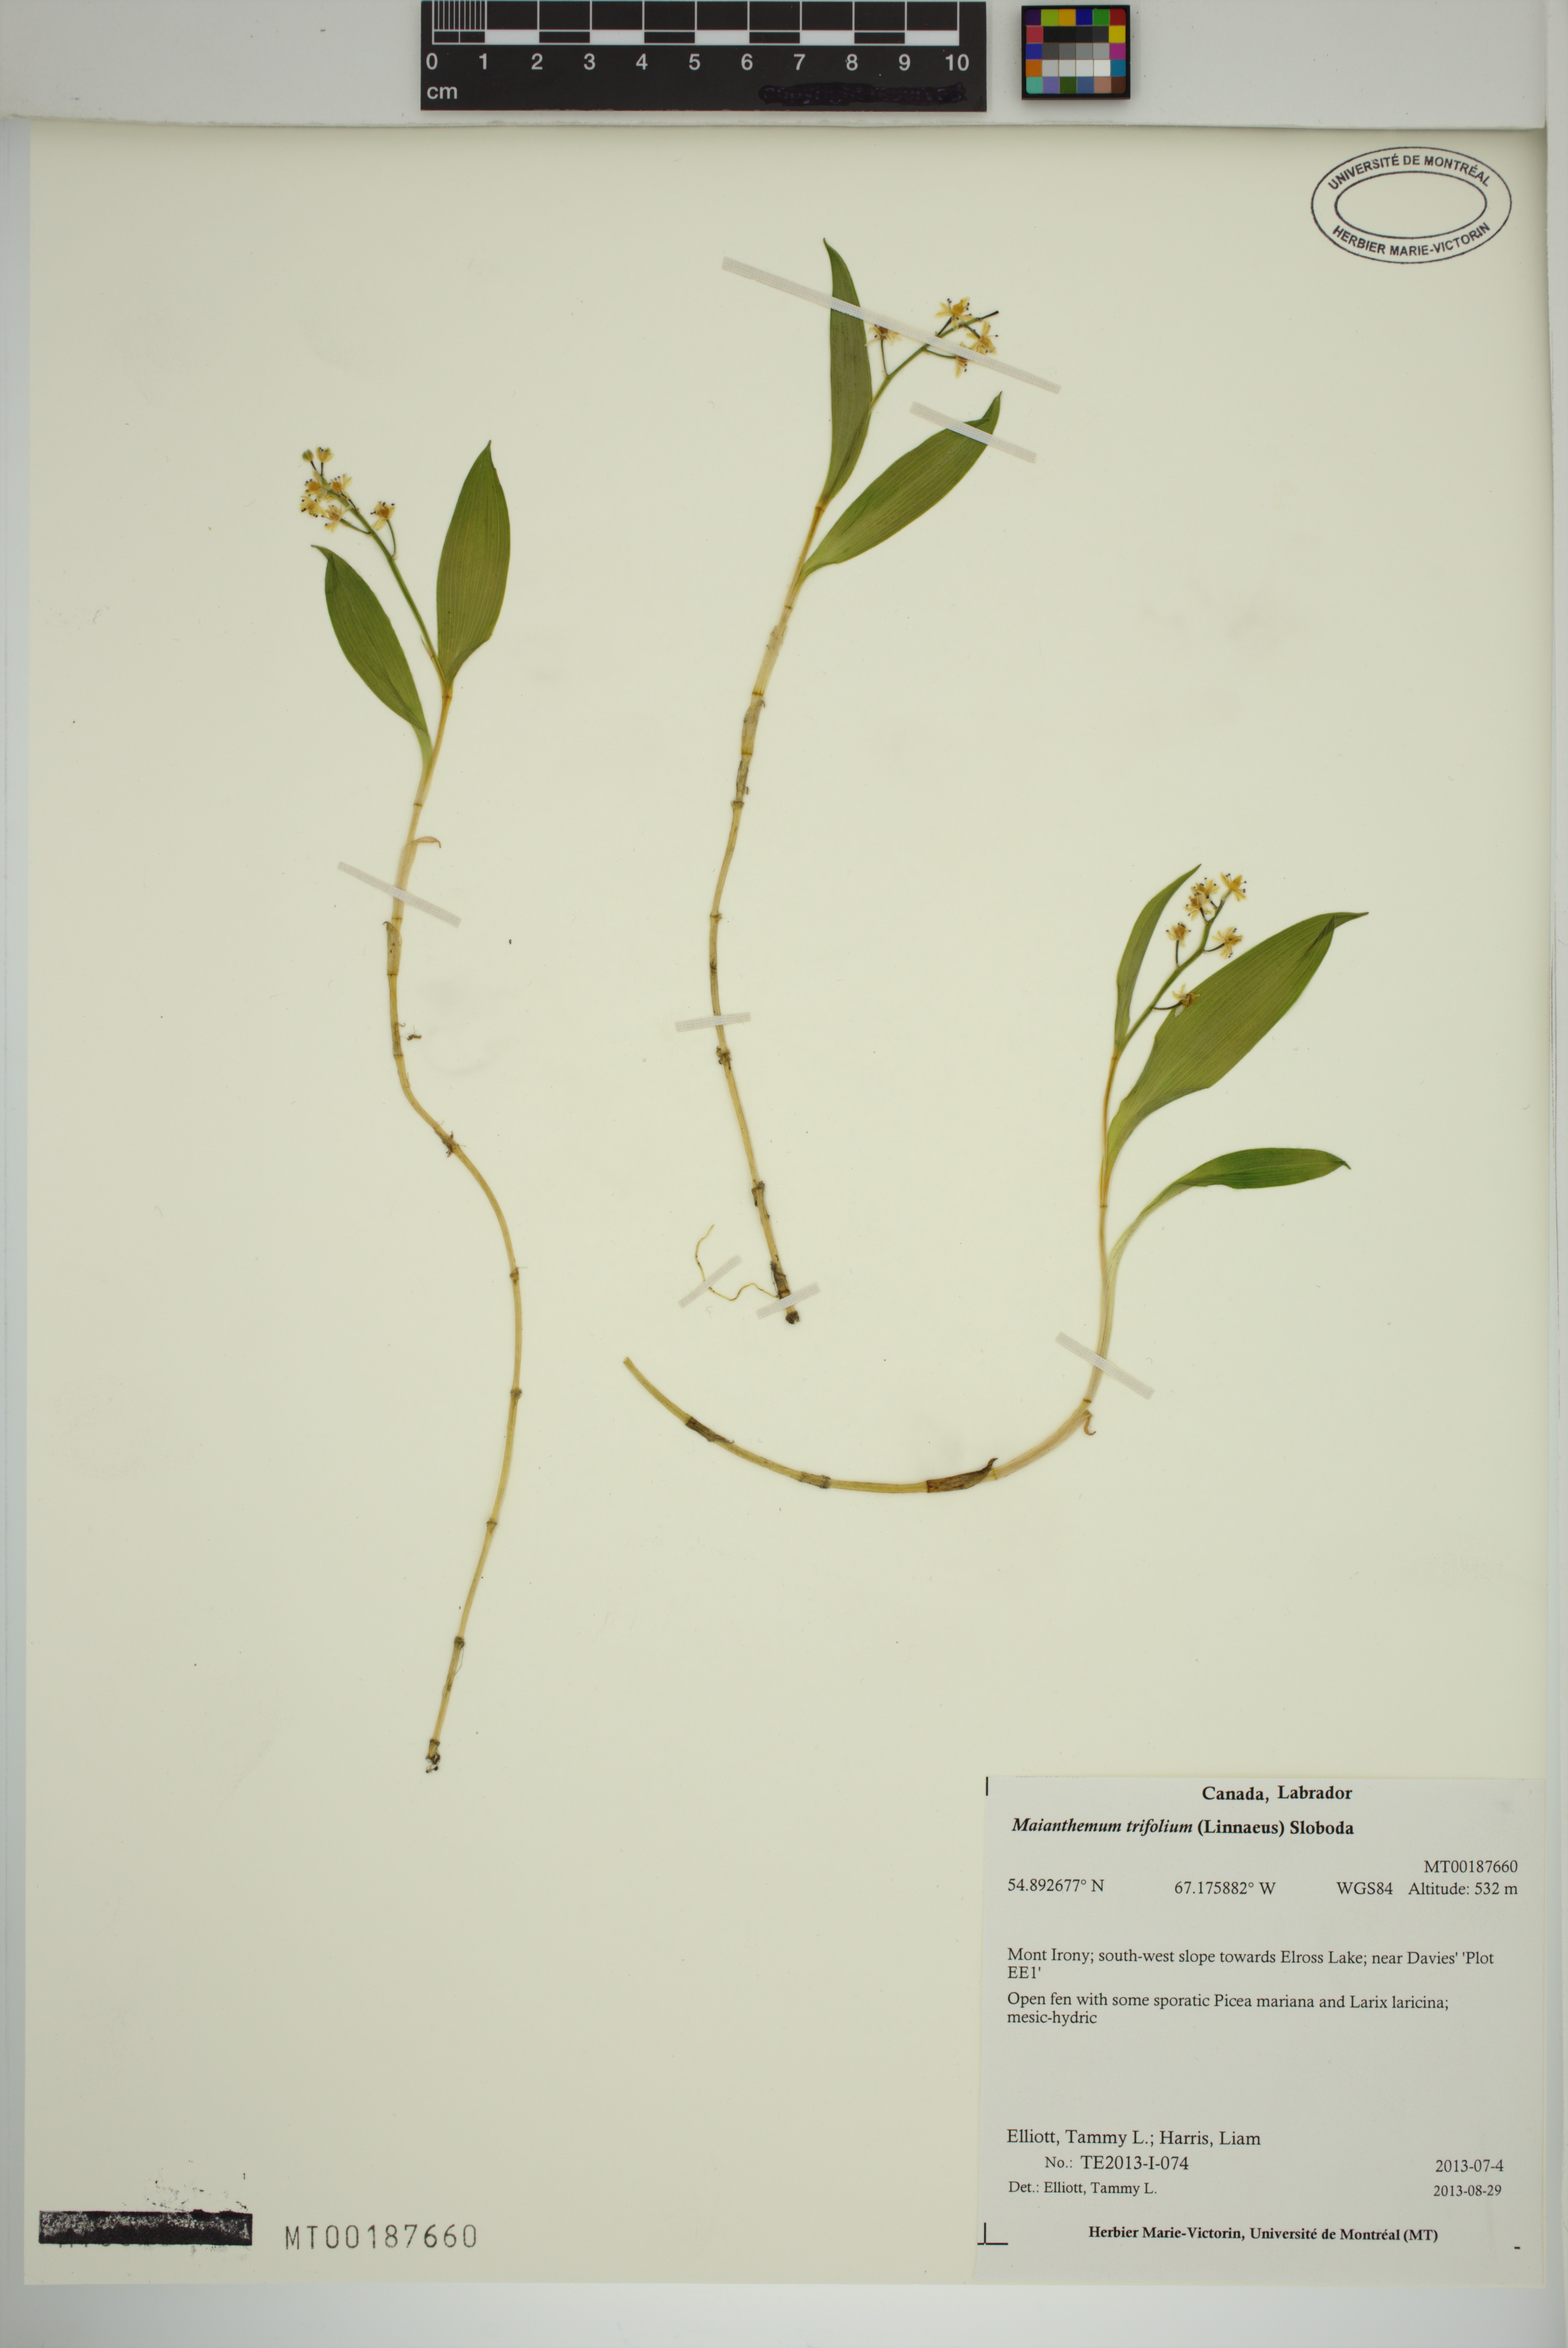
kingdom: Plantae
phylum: Tracheophyta
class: Liliopsida
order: Asparagales
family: Asparagaceae
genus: Maianthemum
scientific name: Maianthemum trifolium
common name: Swamp false solomon's seal
